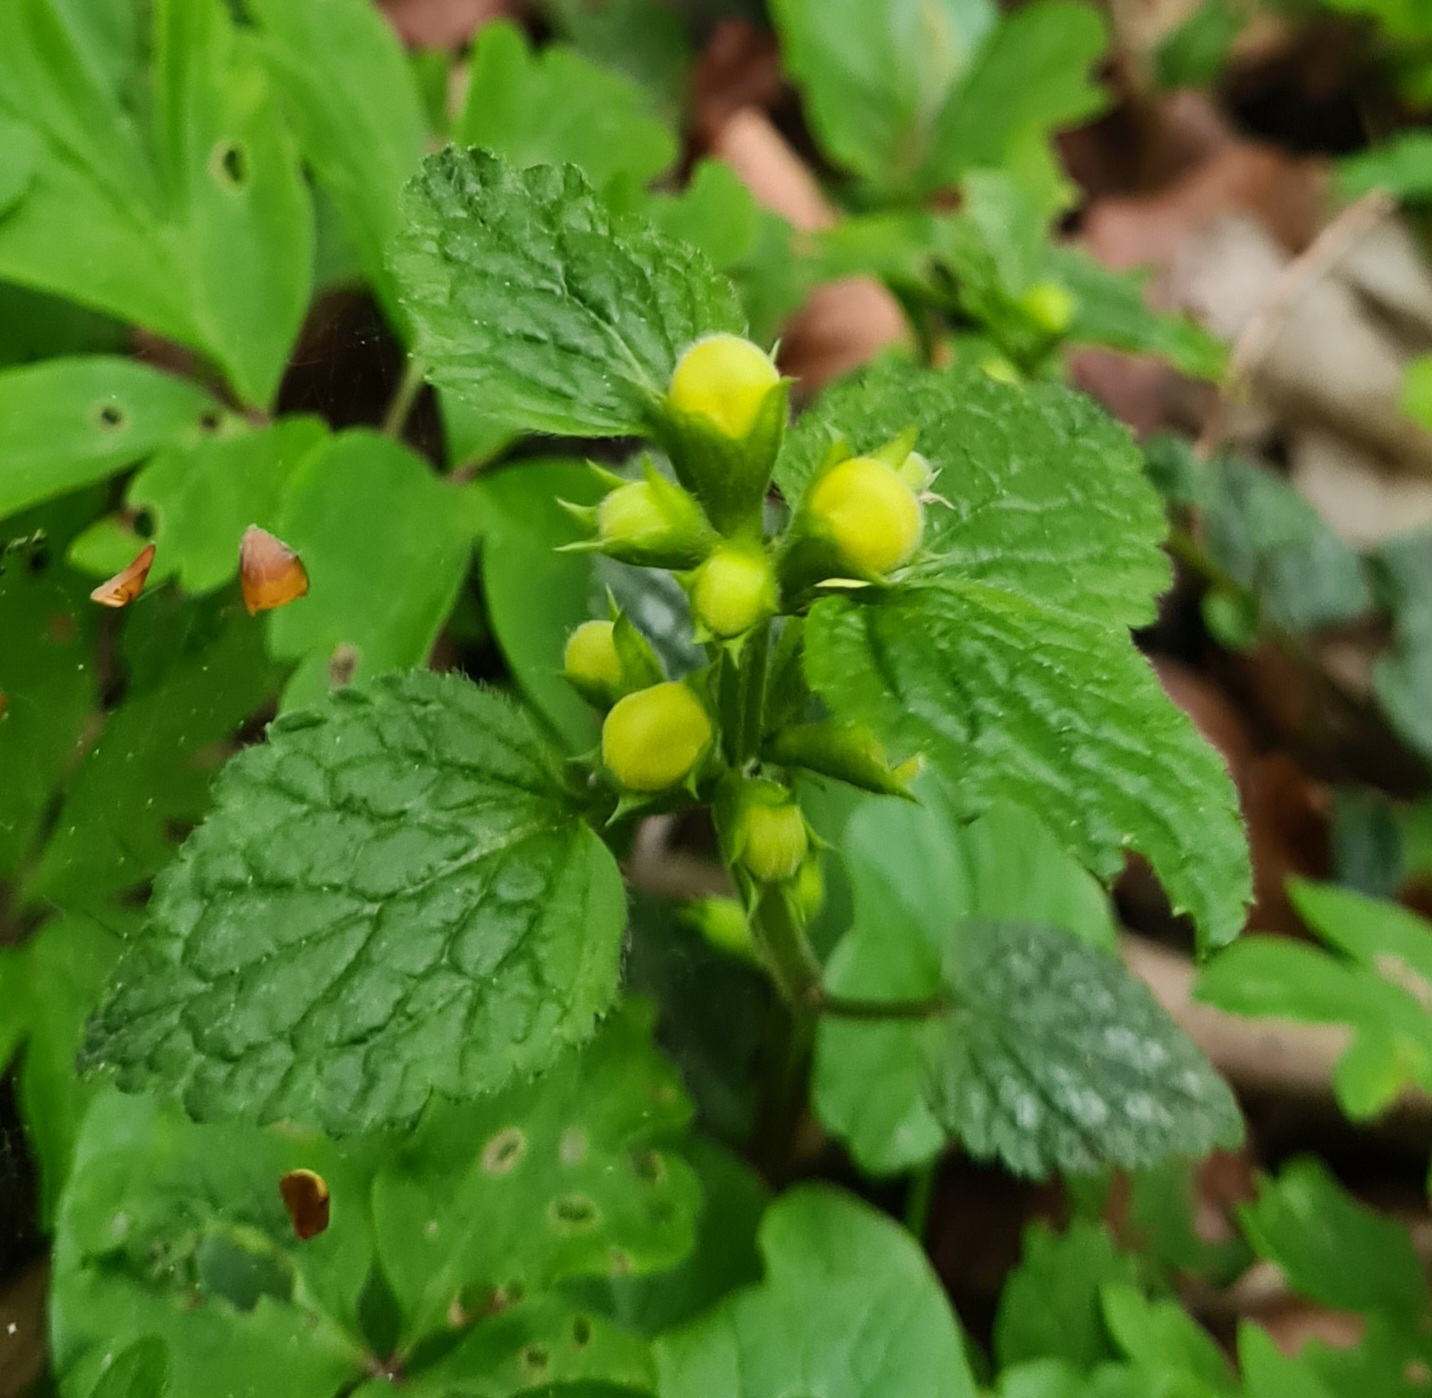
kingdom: Plantae
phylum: Tracheophyta
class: Magnoliopsida
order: Lamiales
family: Lamiaceae
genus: Lamium
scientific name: Lamium galeobdolon
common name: Guldnælde
